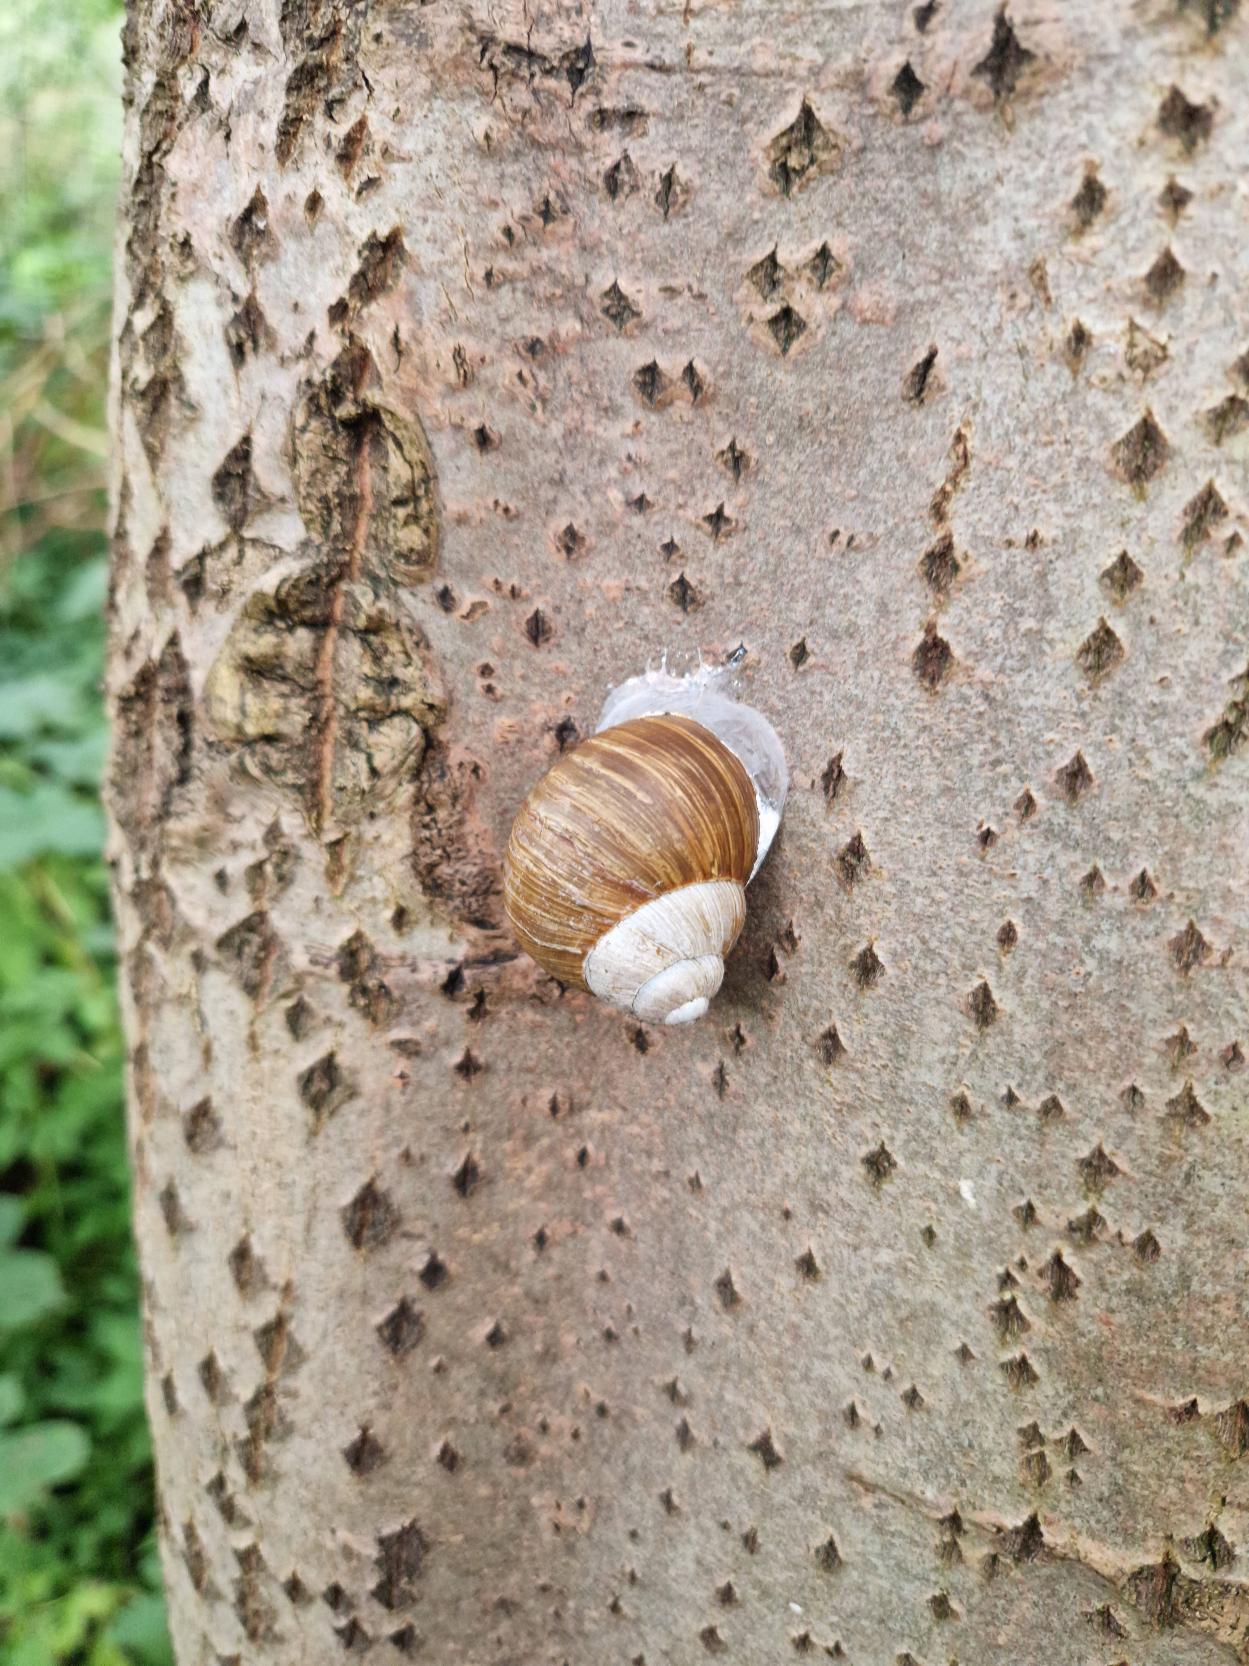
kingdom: Animalia
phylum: Mollusca
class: Gastropoda
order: Stylommatophora
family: Helicidae
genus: Helix
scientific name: Helix pomatia
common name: Vinbjergsnegl
